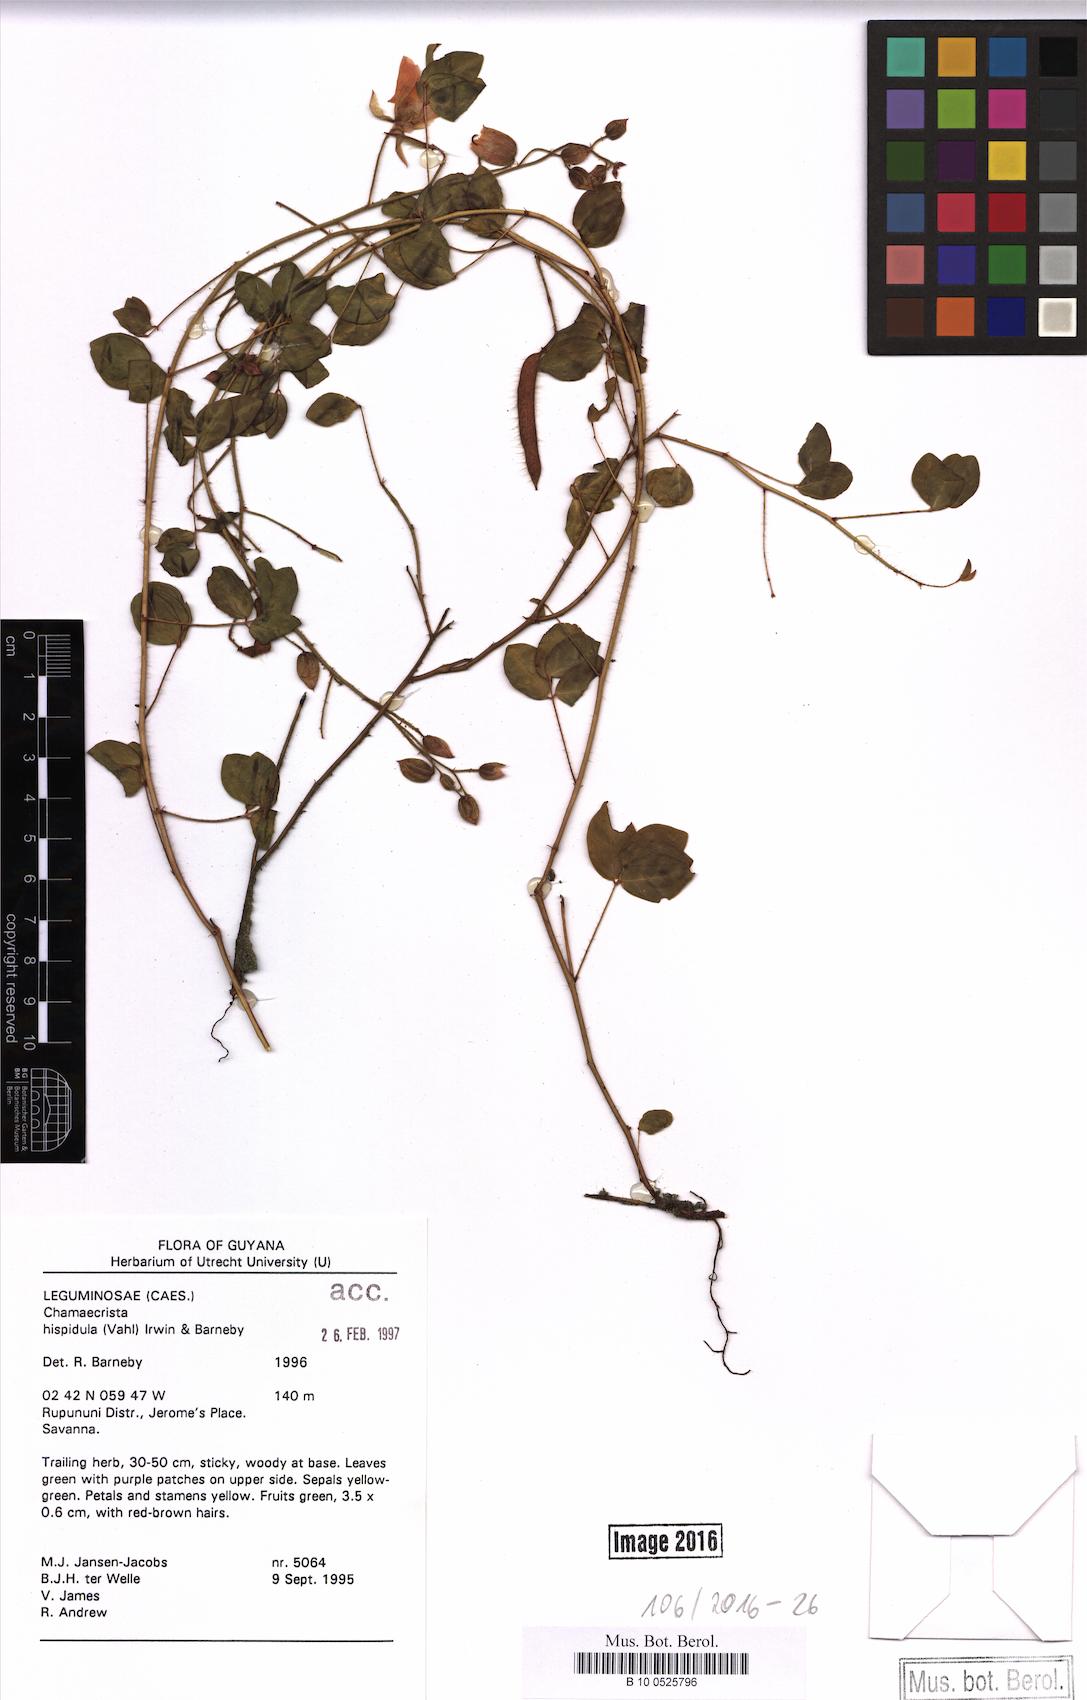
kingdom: Plantae
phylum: Tracheophyta
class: Magnoliopsida
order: Fabales
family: Fabaceae
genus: Chamaecrista
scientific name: Chamaecrista hispidula
